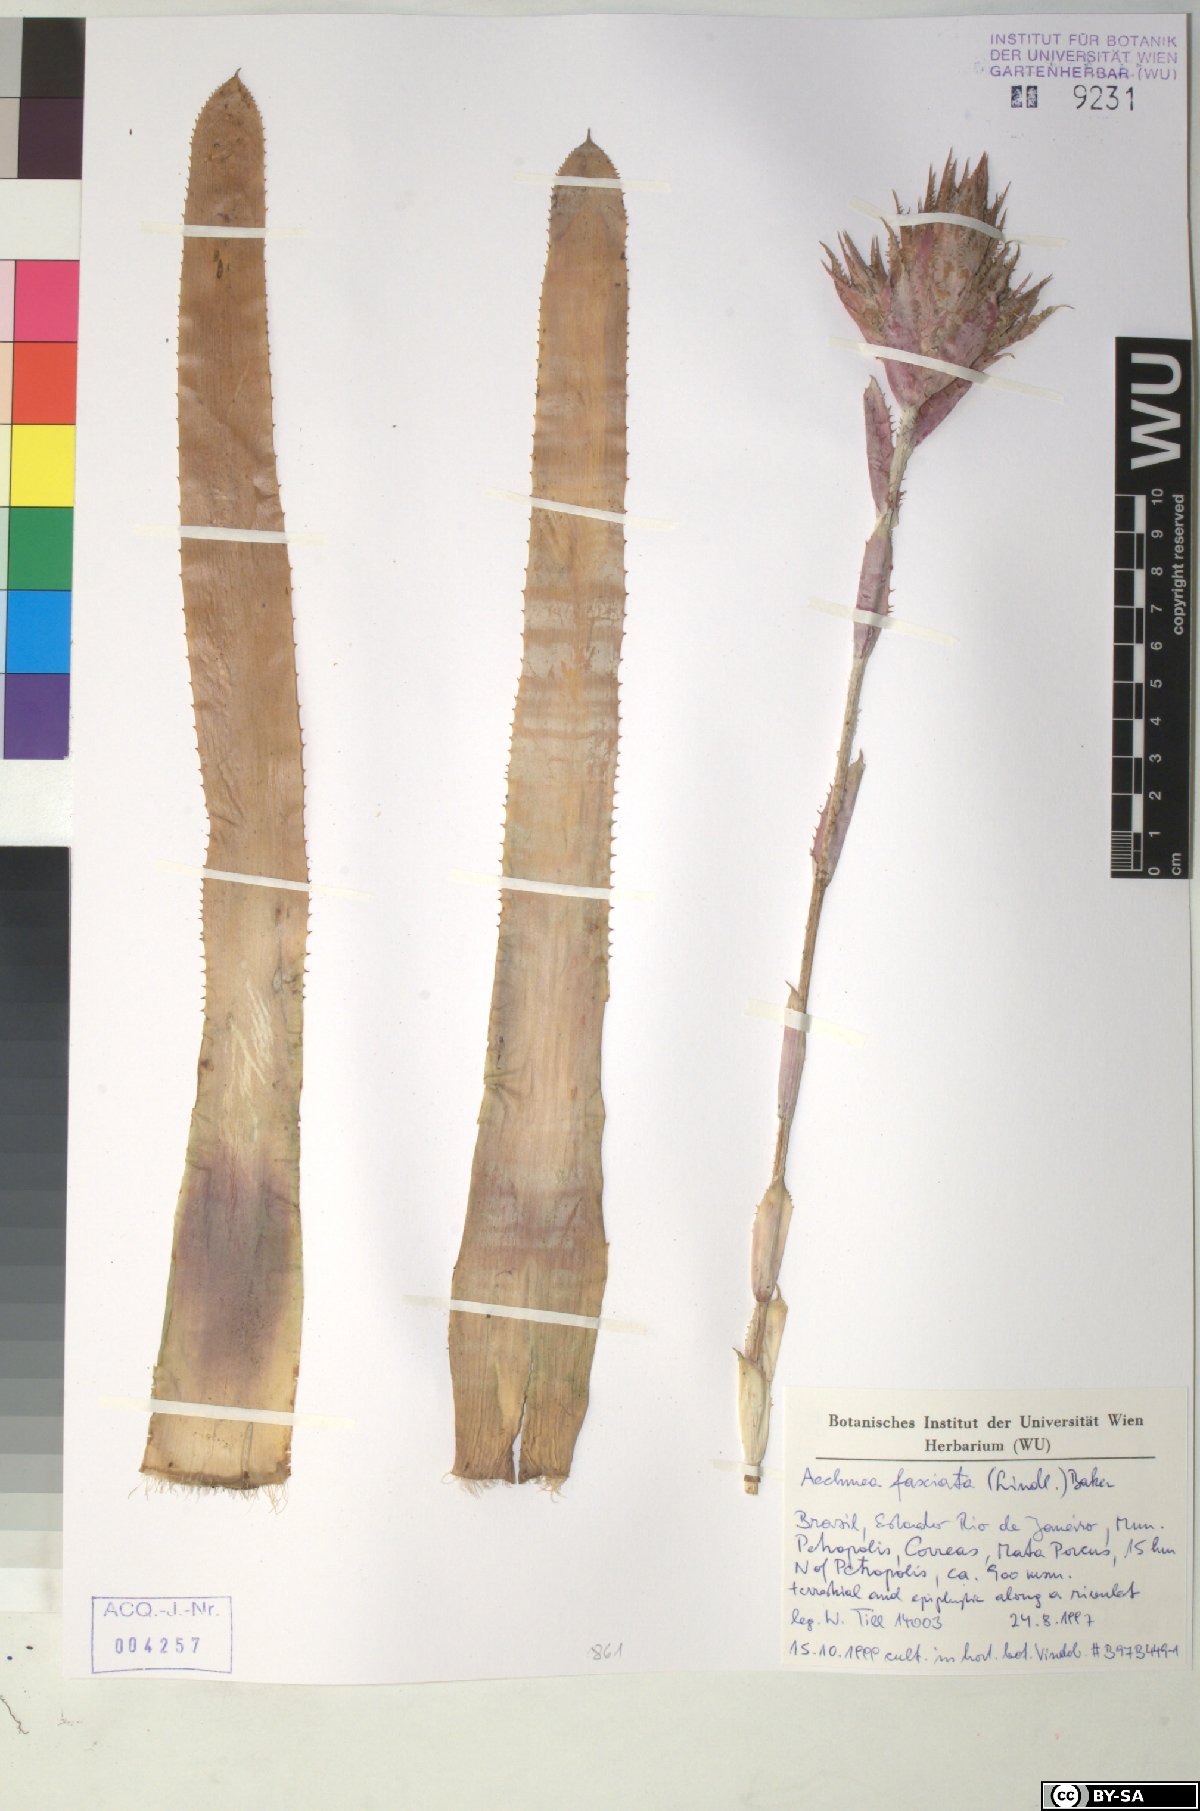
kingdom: Plantae
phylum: Tracheophyta
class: Liliopsida
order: Poales
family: Bromeliaceae
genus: Aechmea
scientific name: Aechmea fasciata
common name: Urnplant
